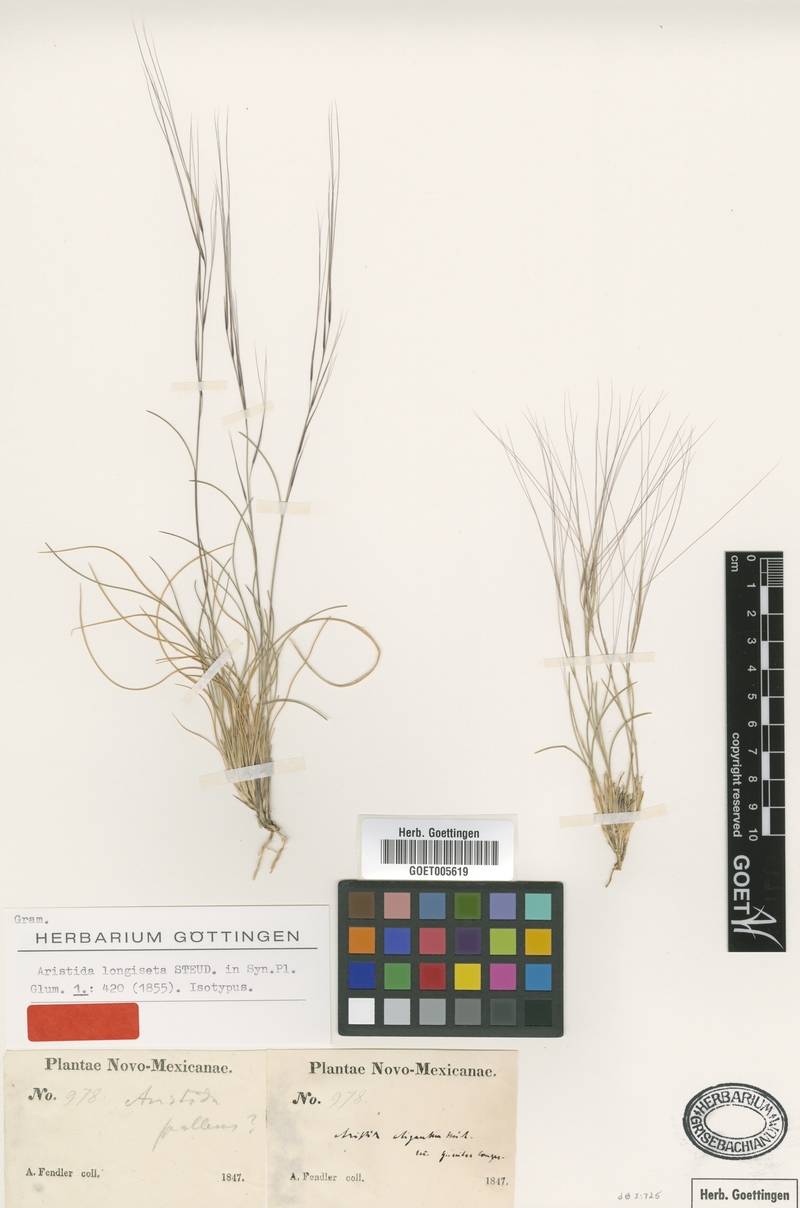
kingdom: Plantae
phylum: Tracheophyta
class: Liliopsida
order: Poales
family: Poaceae
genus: Aristida
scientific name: Aristida longiseta
